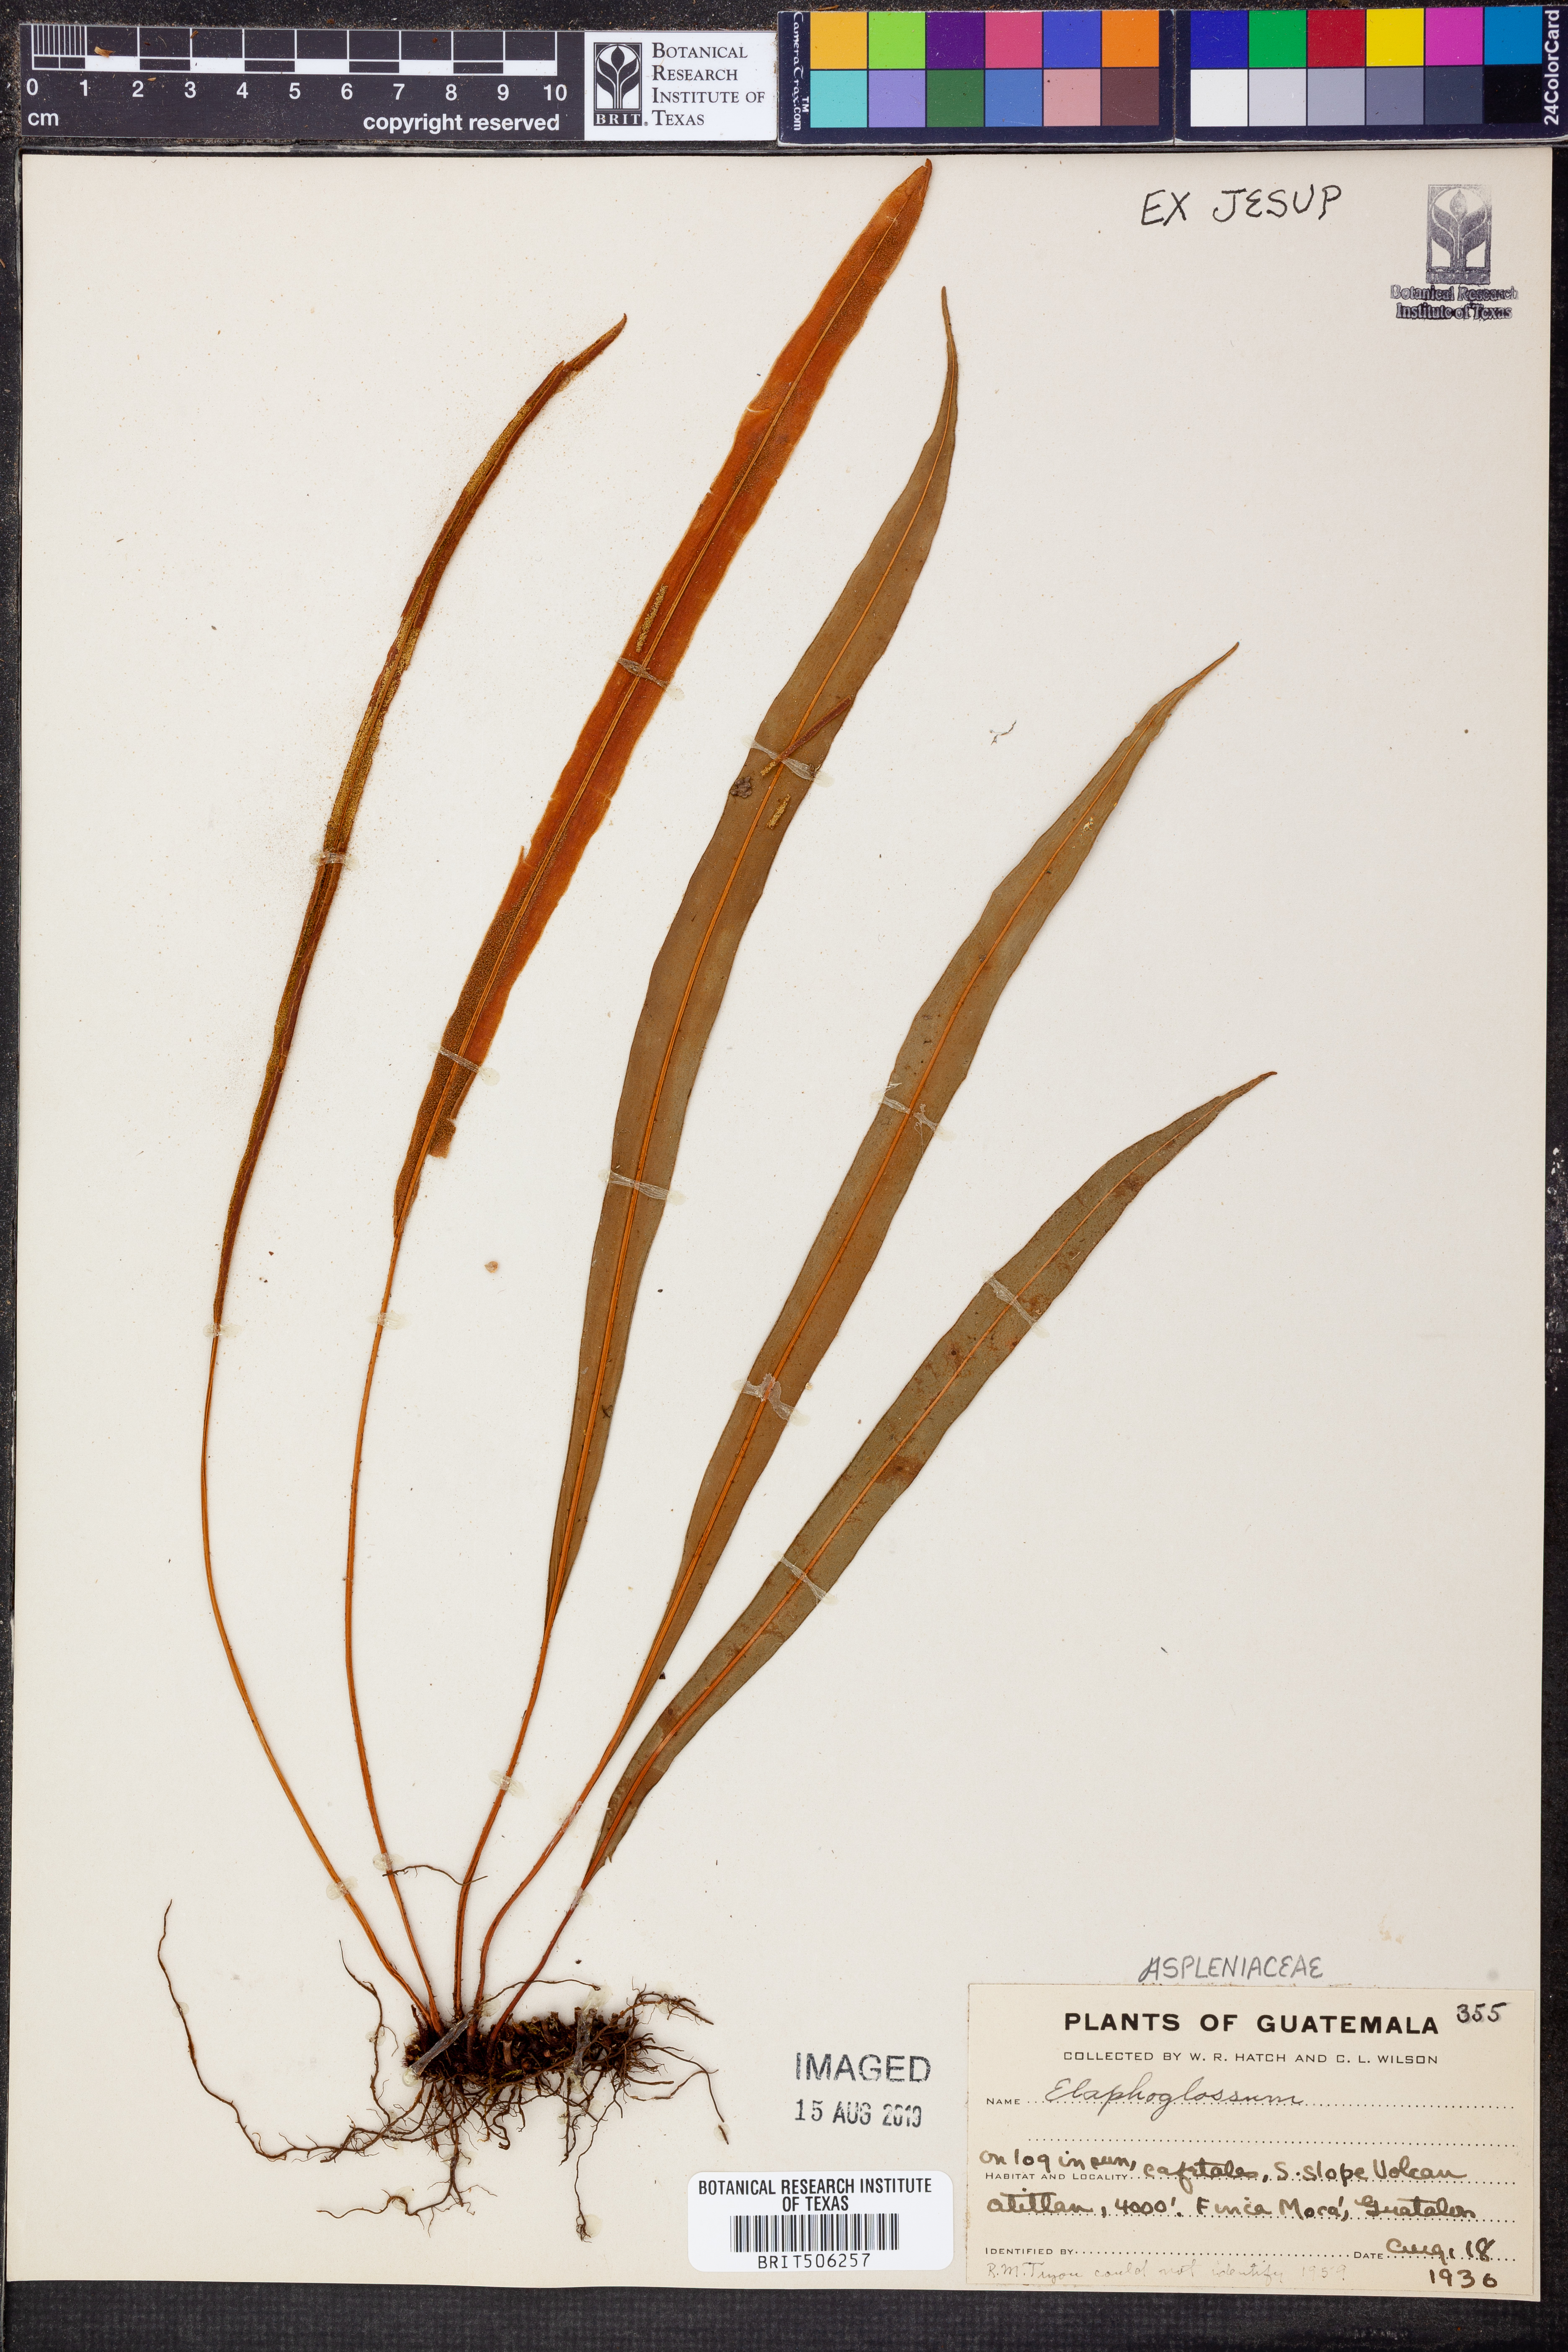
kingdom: Plantae
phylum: Tracheophyta
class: Polypodiopsida
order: Polypodiales
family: Dryopteridaceae
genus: Elaphoglossum
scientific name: Elaphoglossum
